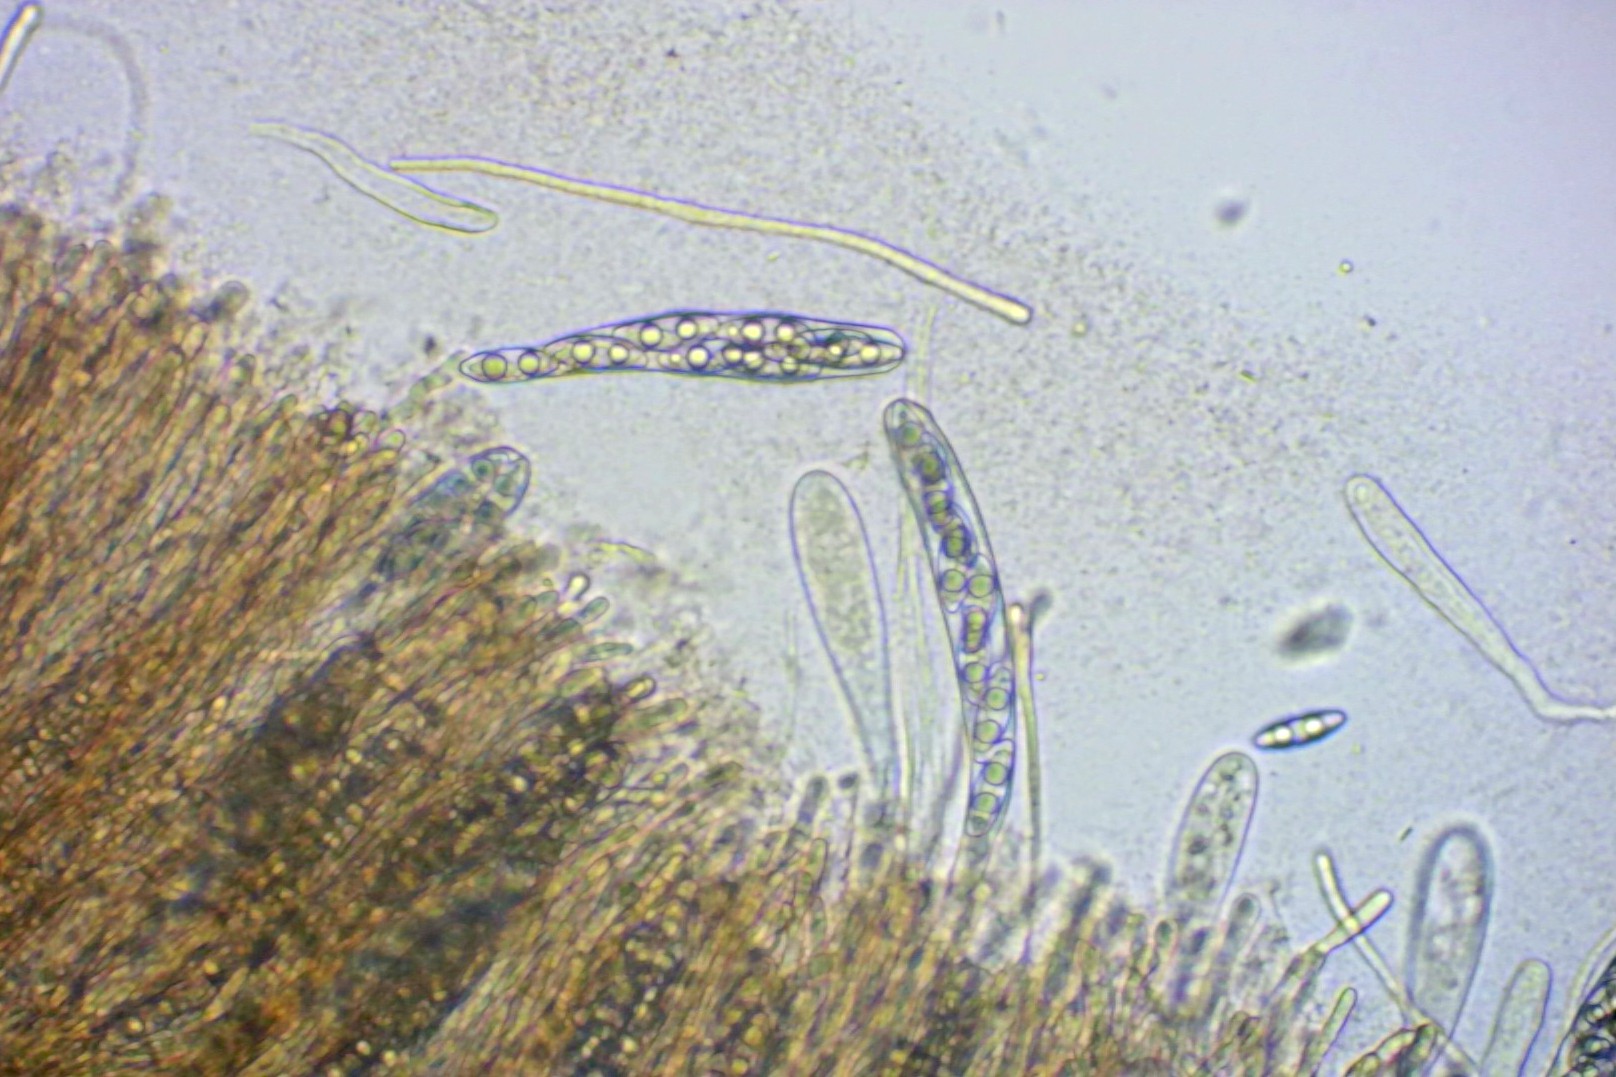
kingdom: Fungi
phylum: Ascomycota
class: Pezizomycetes
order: Pezizales
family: Pyronemataceae
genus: Octospora
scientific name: Octospora coccinea
